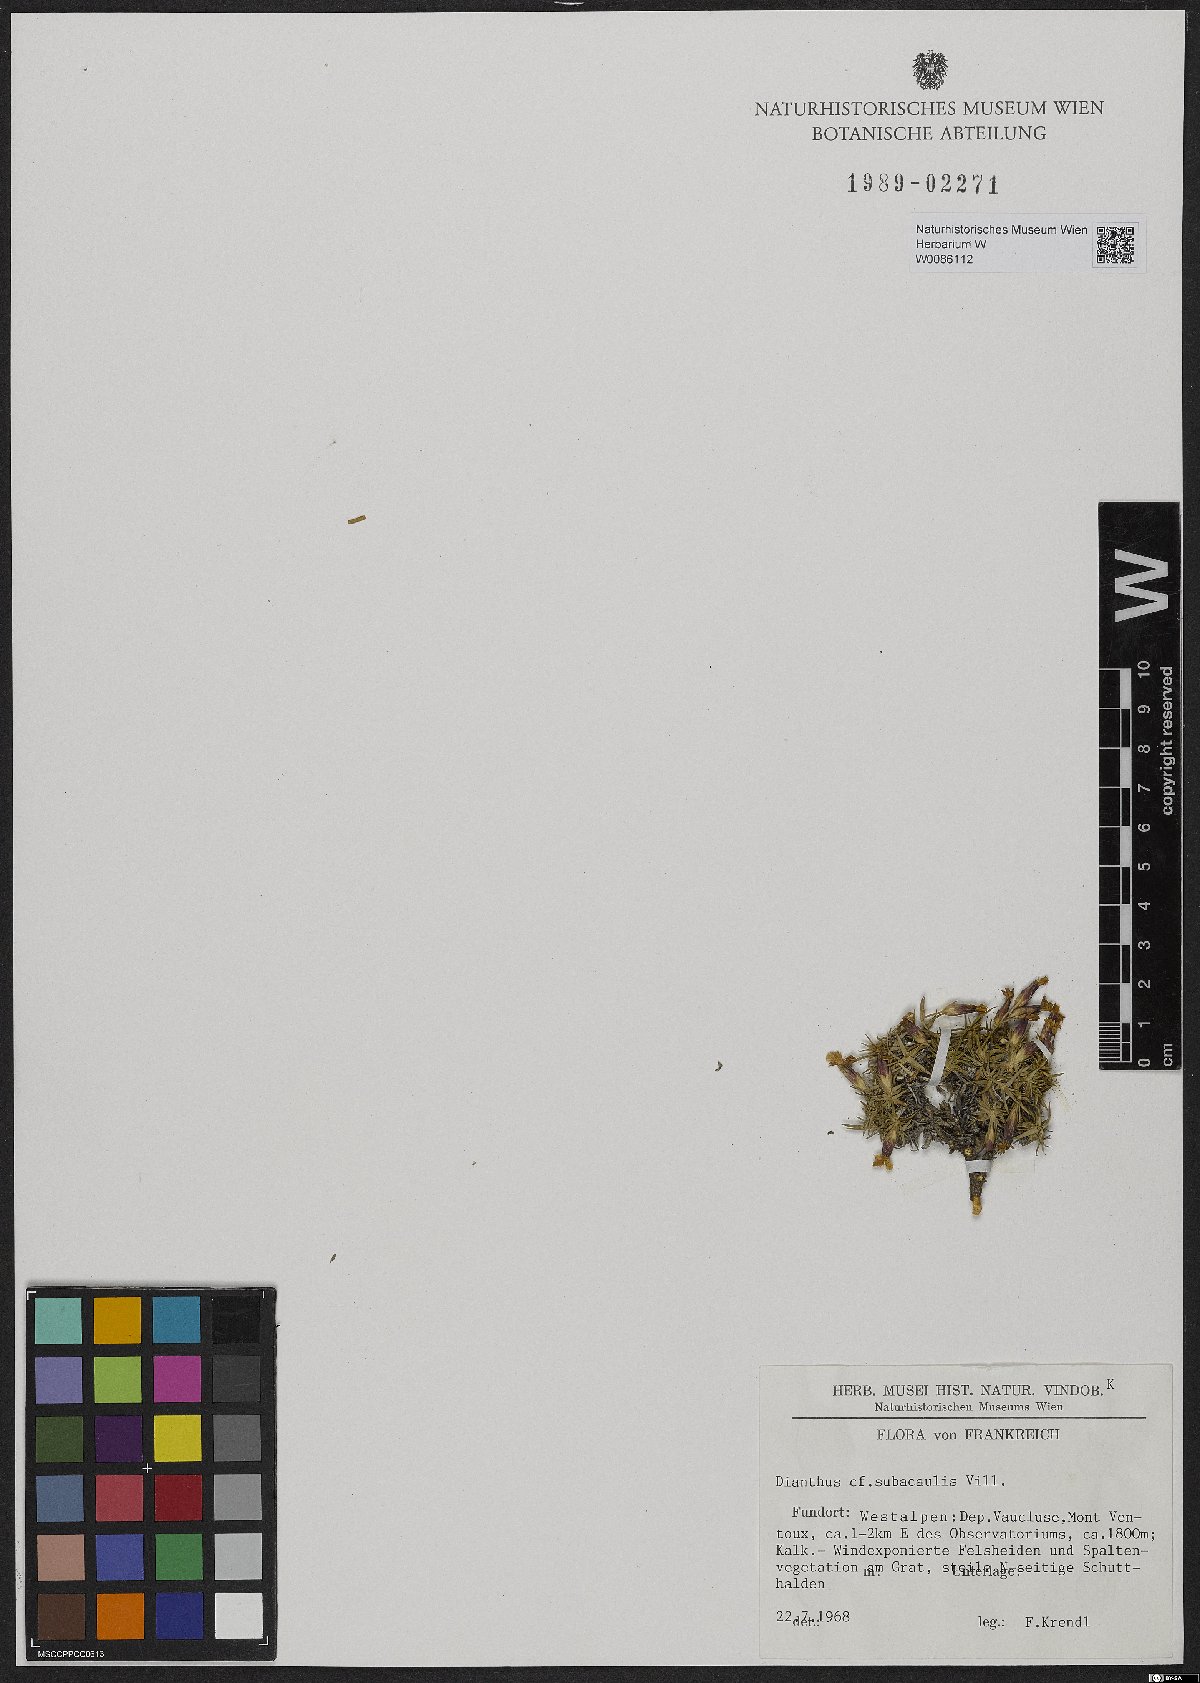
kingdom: Plantae
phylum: Tracheophyta
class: Magnoliopsida
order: Caryophyllales
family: Caryophyllaceae
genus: Dianthus
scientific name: Dianthus subacaulis
